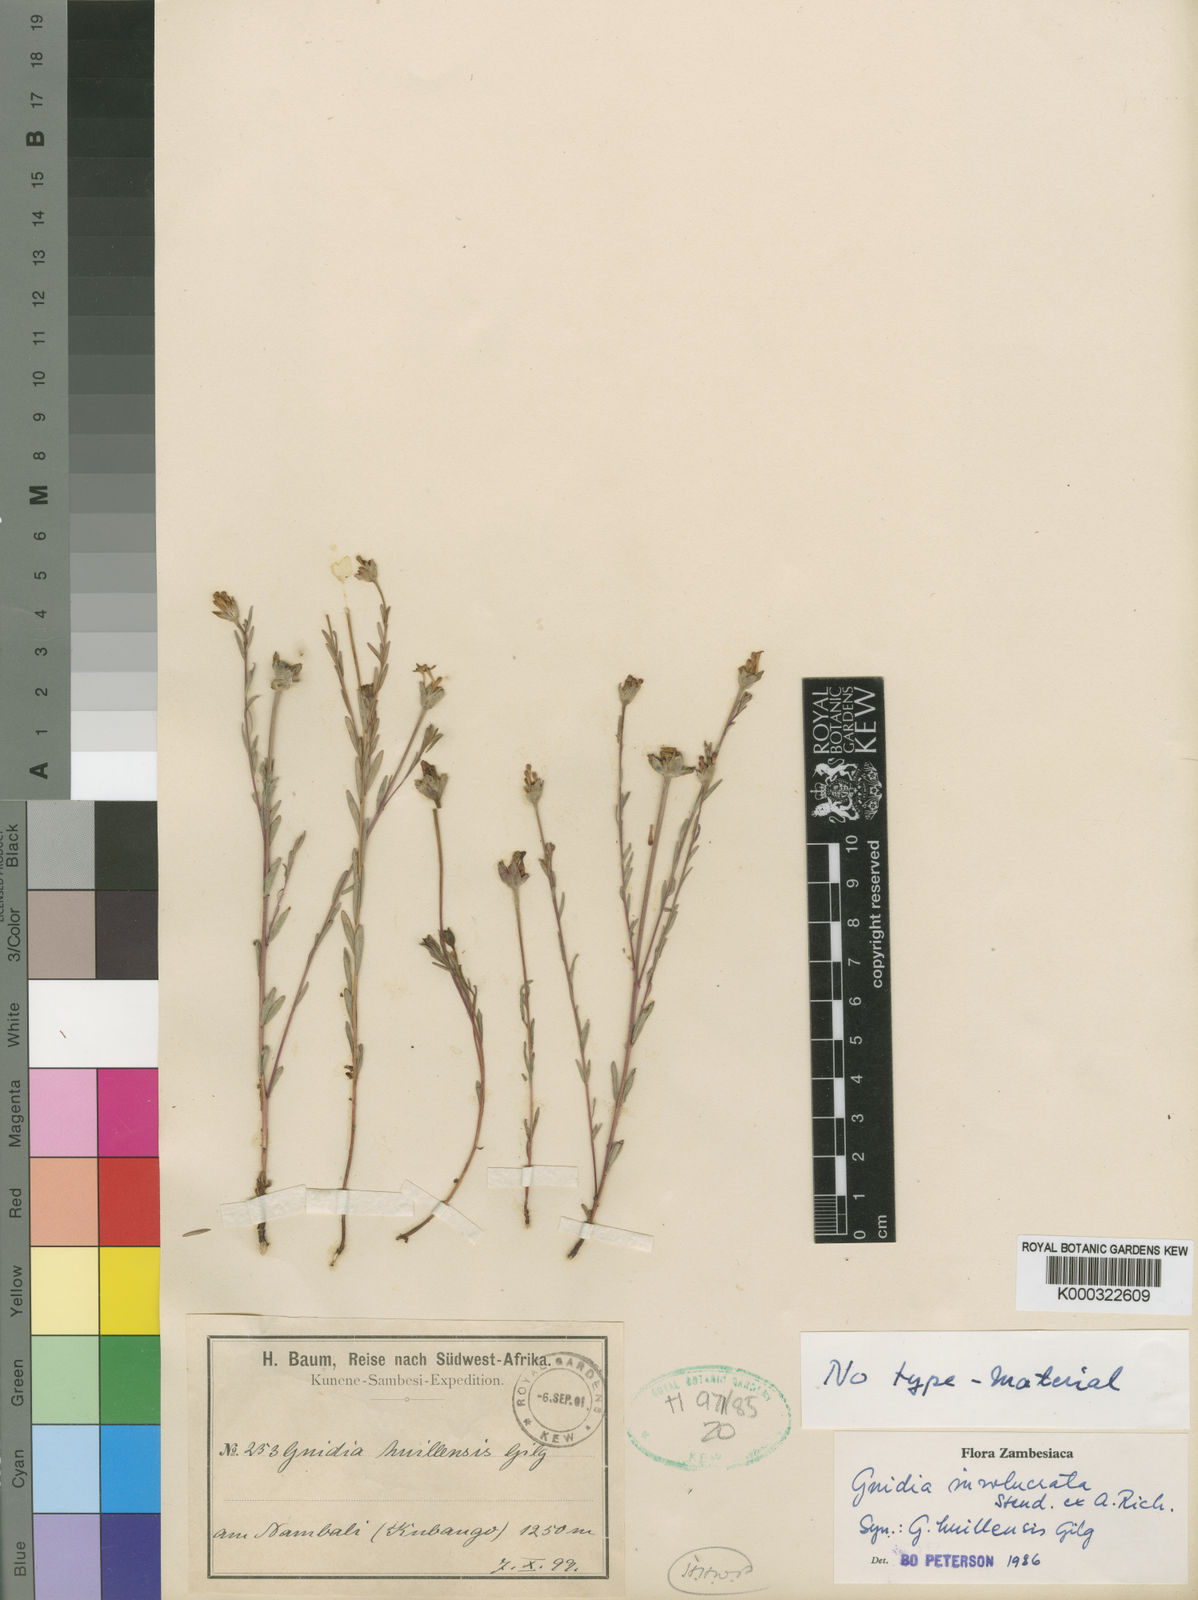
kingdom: Plantae
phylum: Tracheophyta
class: Magnoliopsida
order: Malvales
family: Thymelaeaceae
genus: Gnidia
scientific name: Gnidia involucrata
